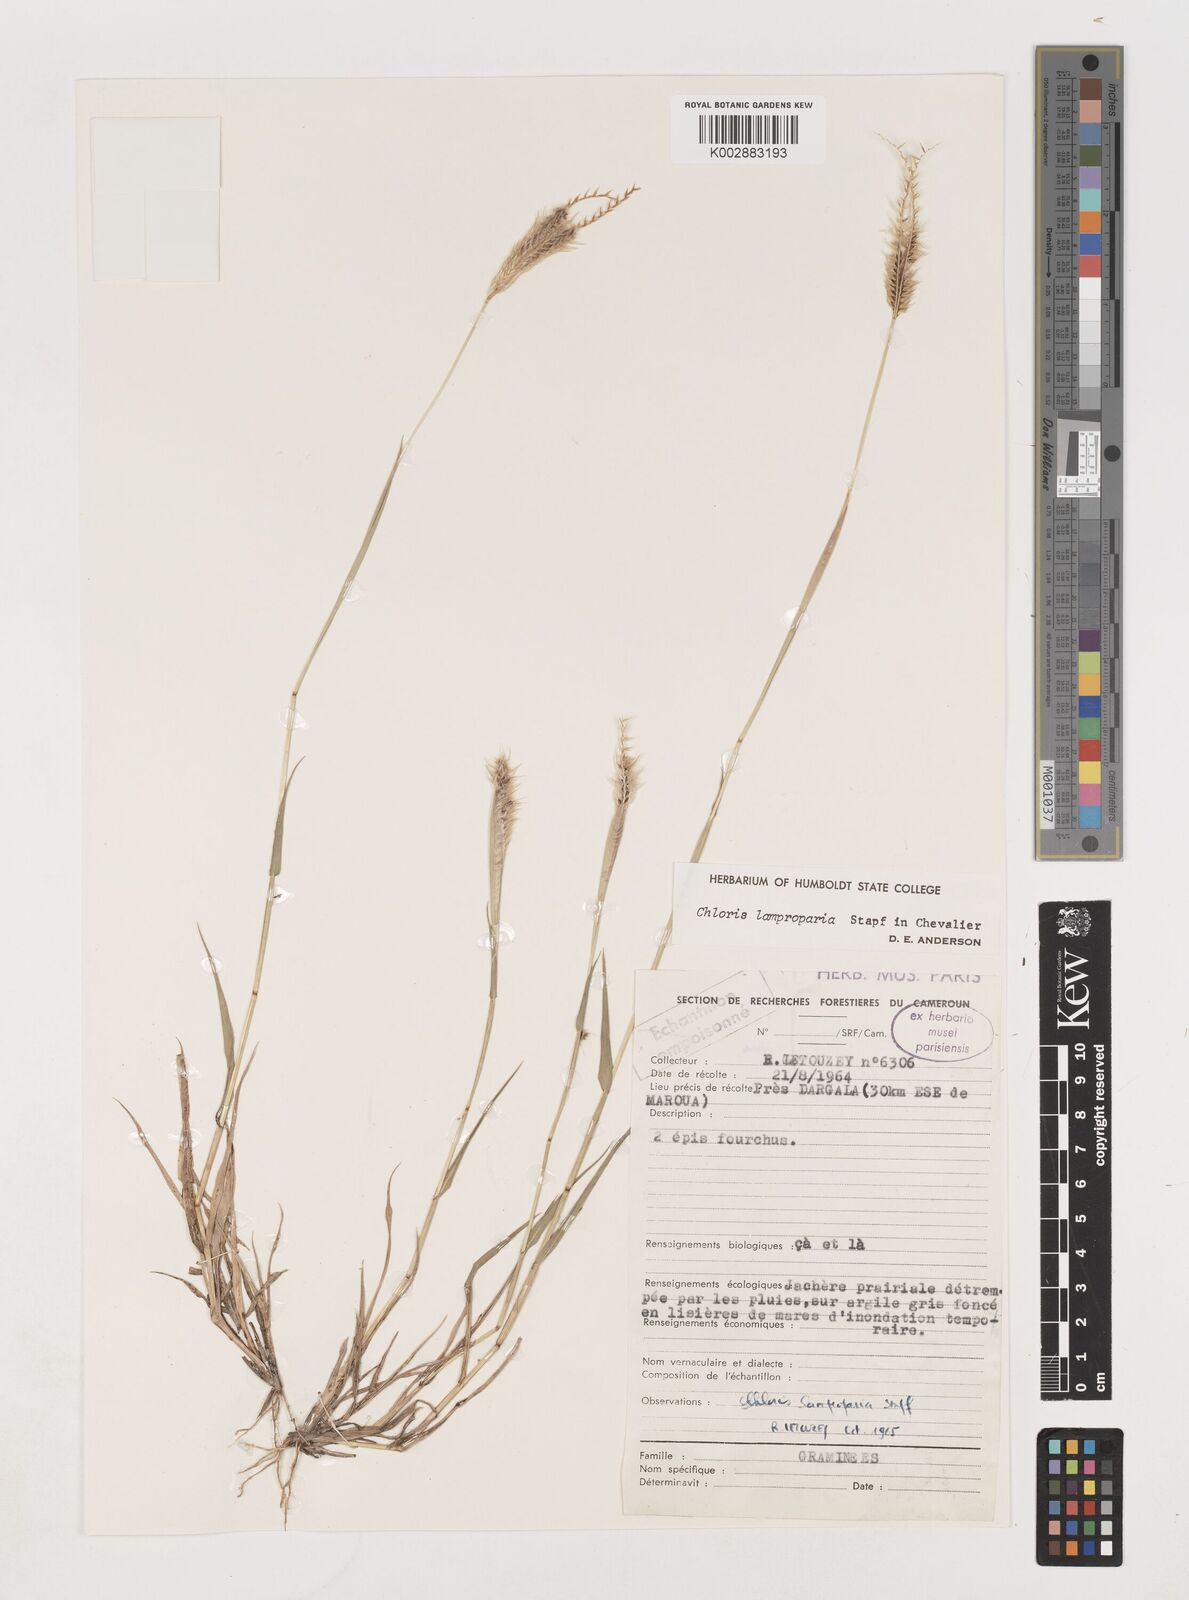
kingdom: Plantae
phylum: Tracheophyta
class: Liliopsida
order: Poales
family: Poaceae
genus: Stapfochloa
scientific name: Stapfochloa lamproparia
